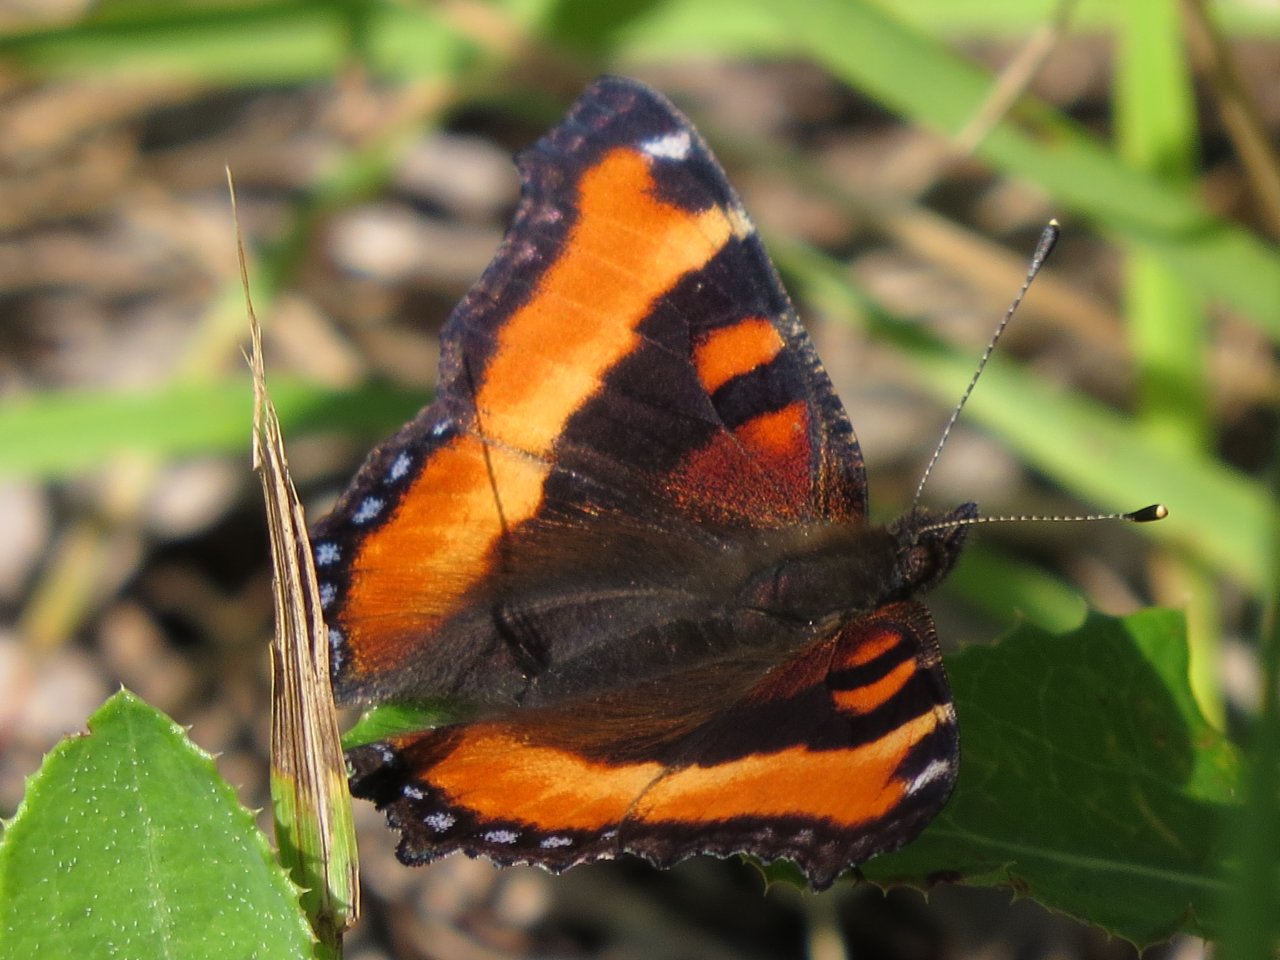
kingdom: Animalia
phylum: Arthropoda
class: Insecta
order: Lepidoptera
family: Nymphalidae
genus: Aglais
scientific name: Aglais milberti
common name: Milbert's Tortoiseshell
